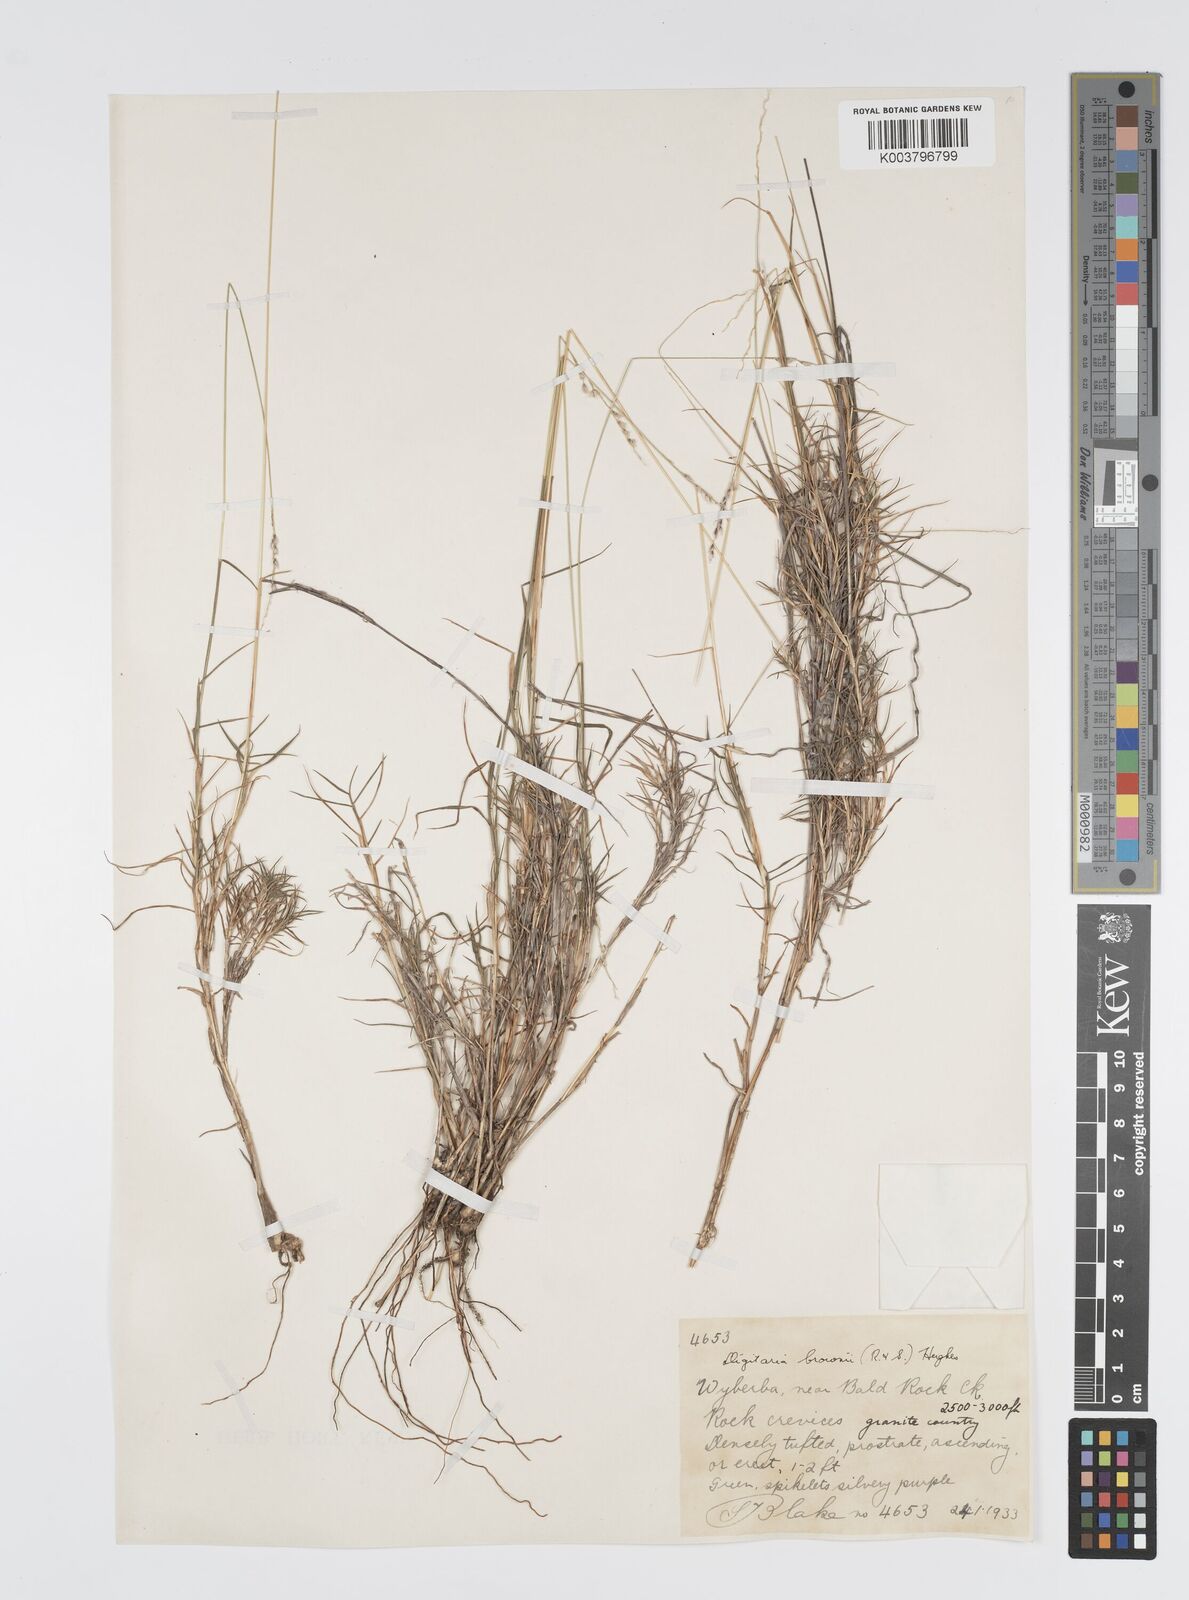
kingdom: Plantae
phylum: Tracheophyta
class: Liliopsida
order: Poales
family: Poaceae
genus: Digitaria
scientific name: Digitaria brownii
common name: Cotton grass
